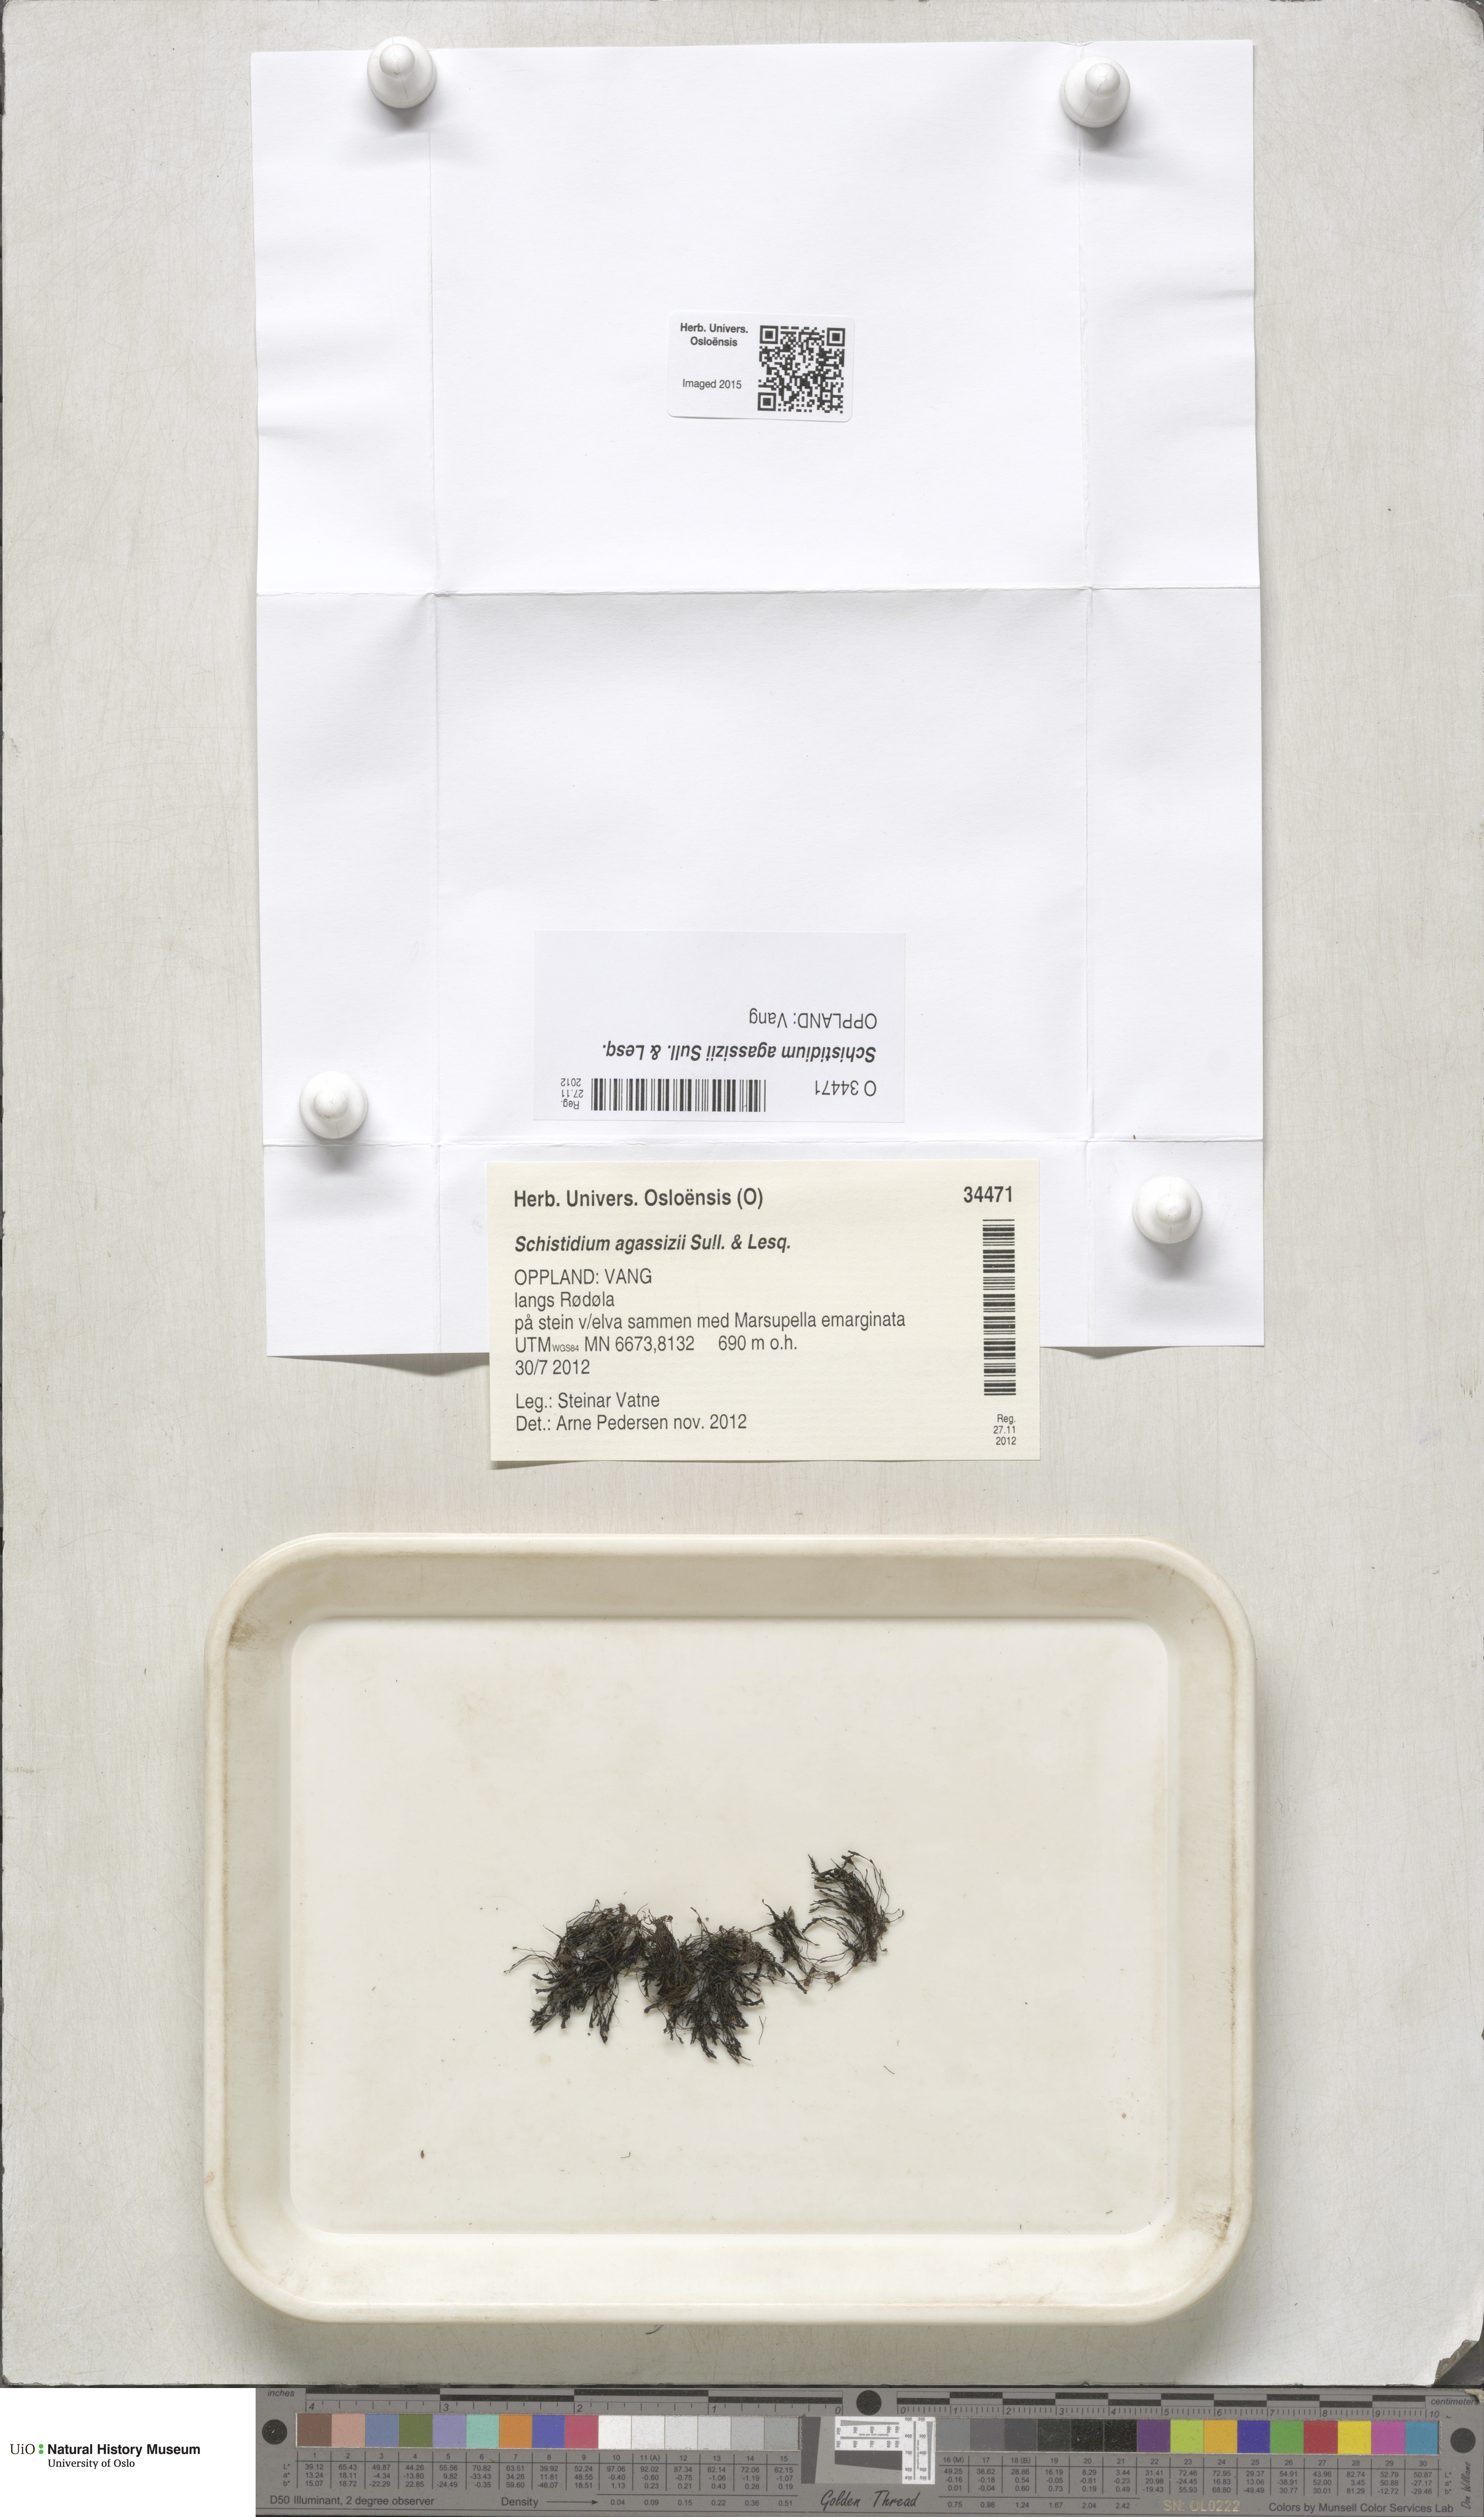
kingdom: Plantae
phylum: Bryophyta
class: Bryopsida
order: Grimmiales
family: Grimmiaceae
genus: Schistidium
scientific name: Schistidium agassizii
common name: Agassiz's bloom moss
